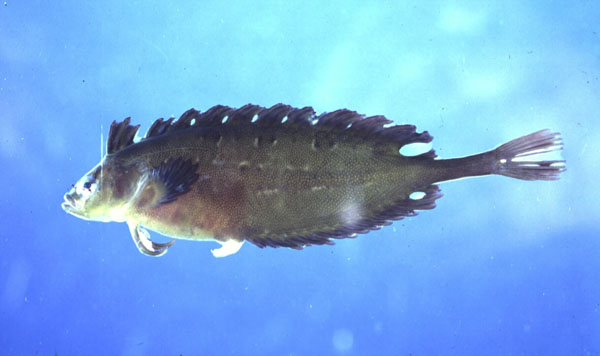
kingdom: Animalia
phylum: Chordata
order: Perciformes
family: Clinidae
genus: Fucomimus
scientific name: Fucomimus mus
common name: Mousey klipfish
